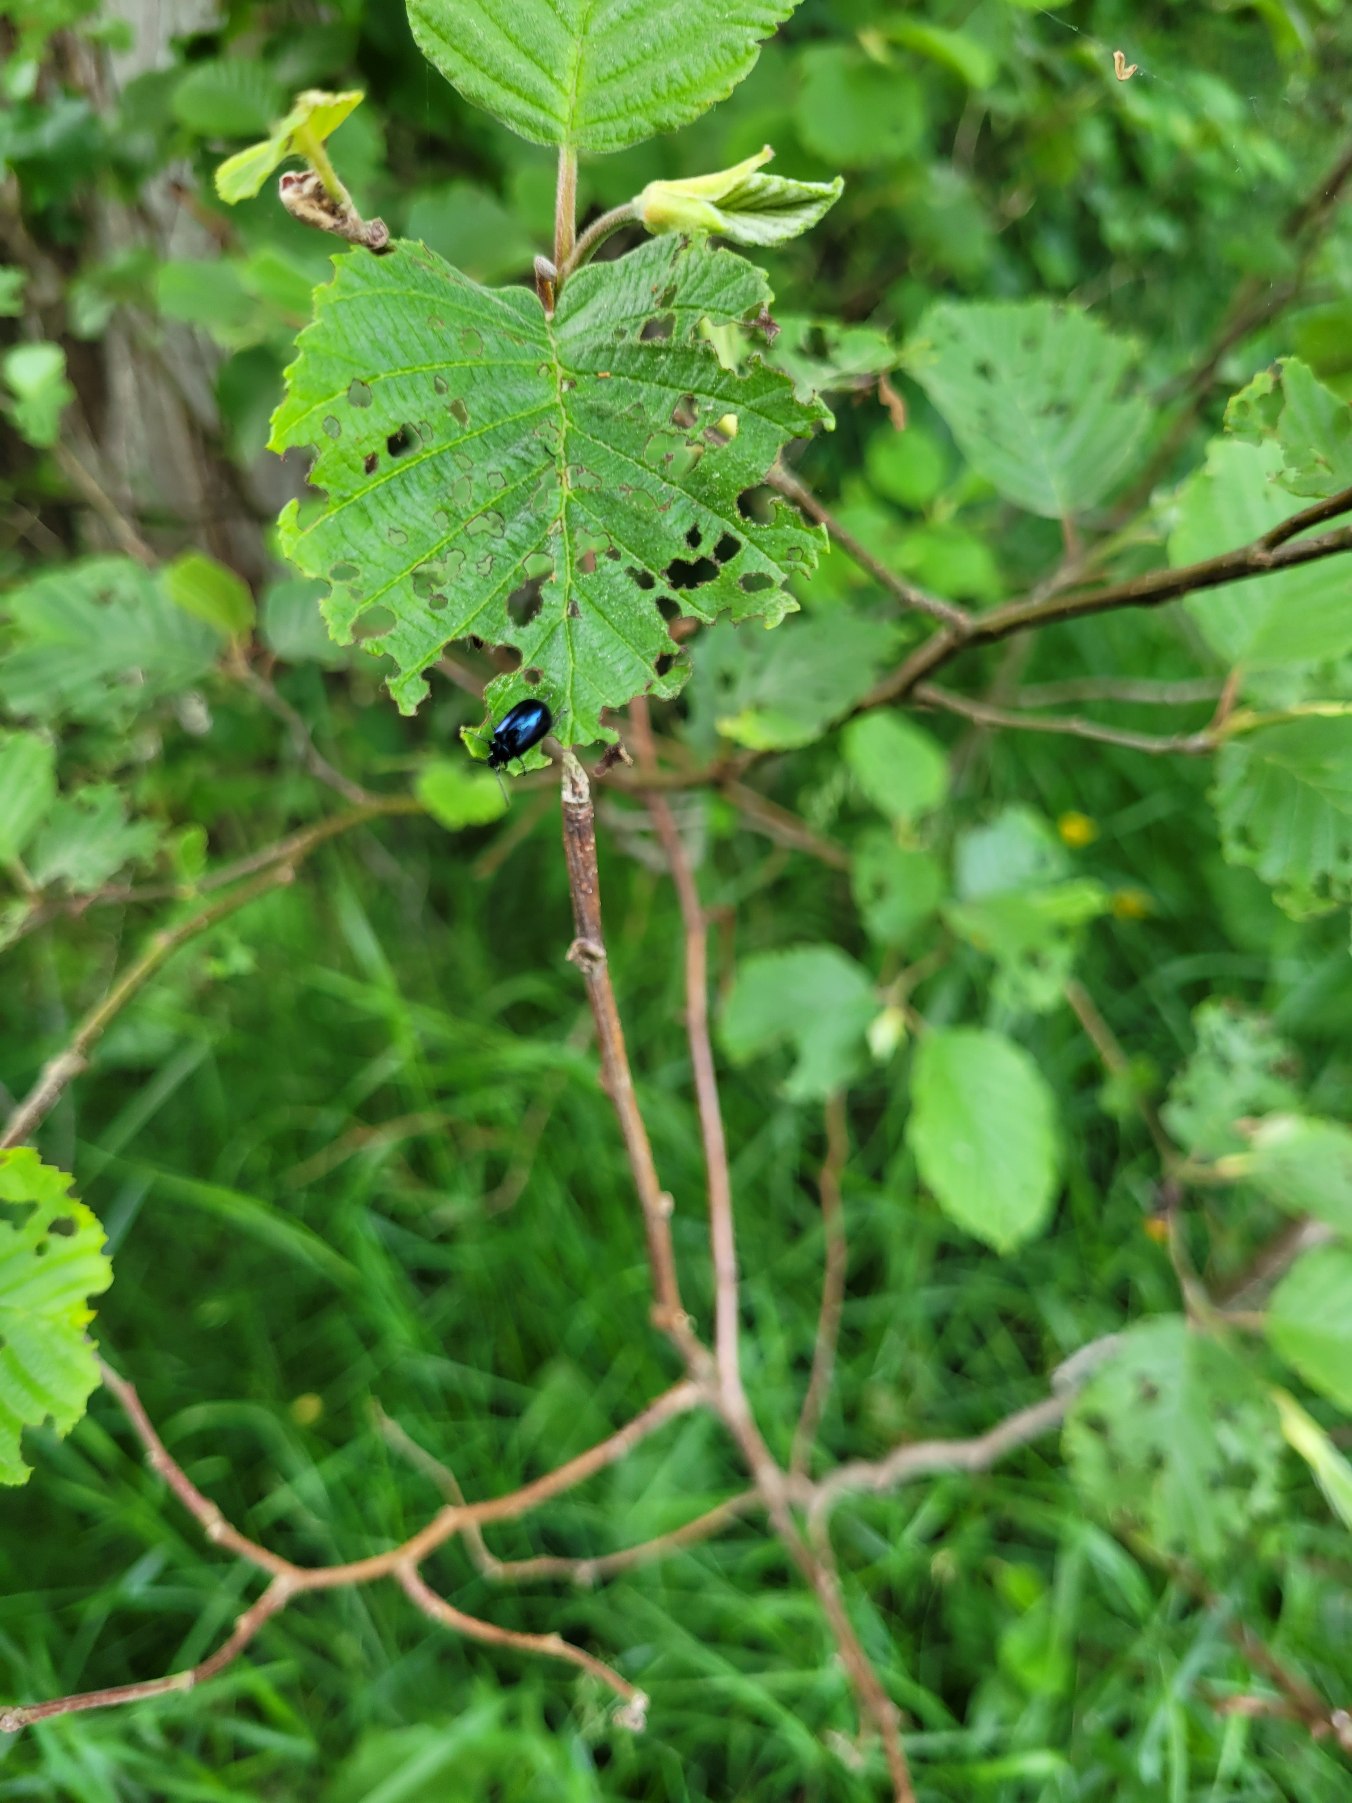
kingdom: Animalia
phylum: Arthropoda
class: Insecta
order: Coleoptera
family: Chrysomelidae
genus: Agelastica
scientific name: Agelastica alni
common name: Ellebladbille
